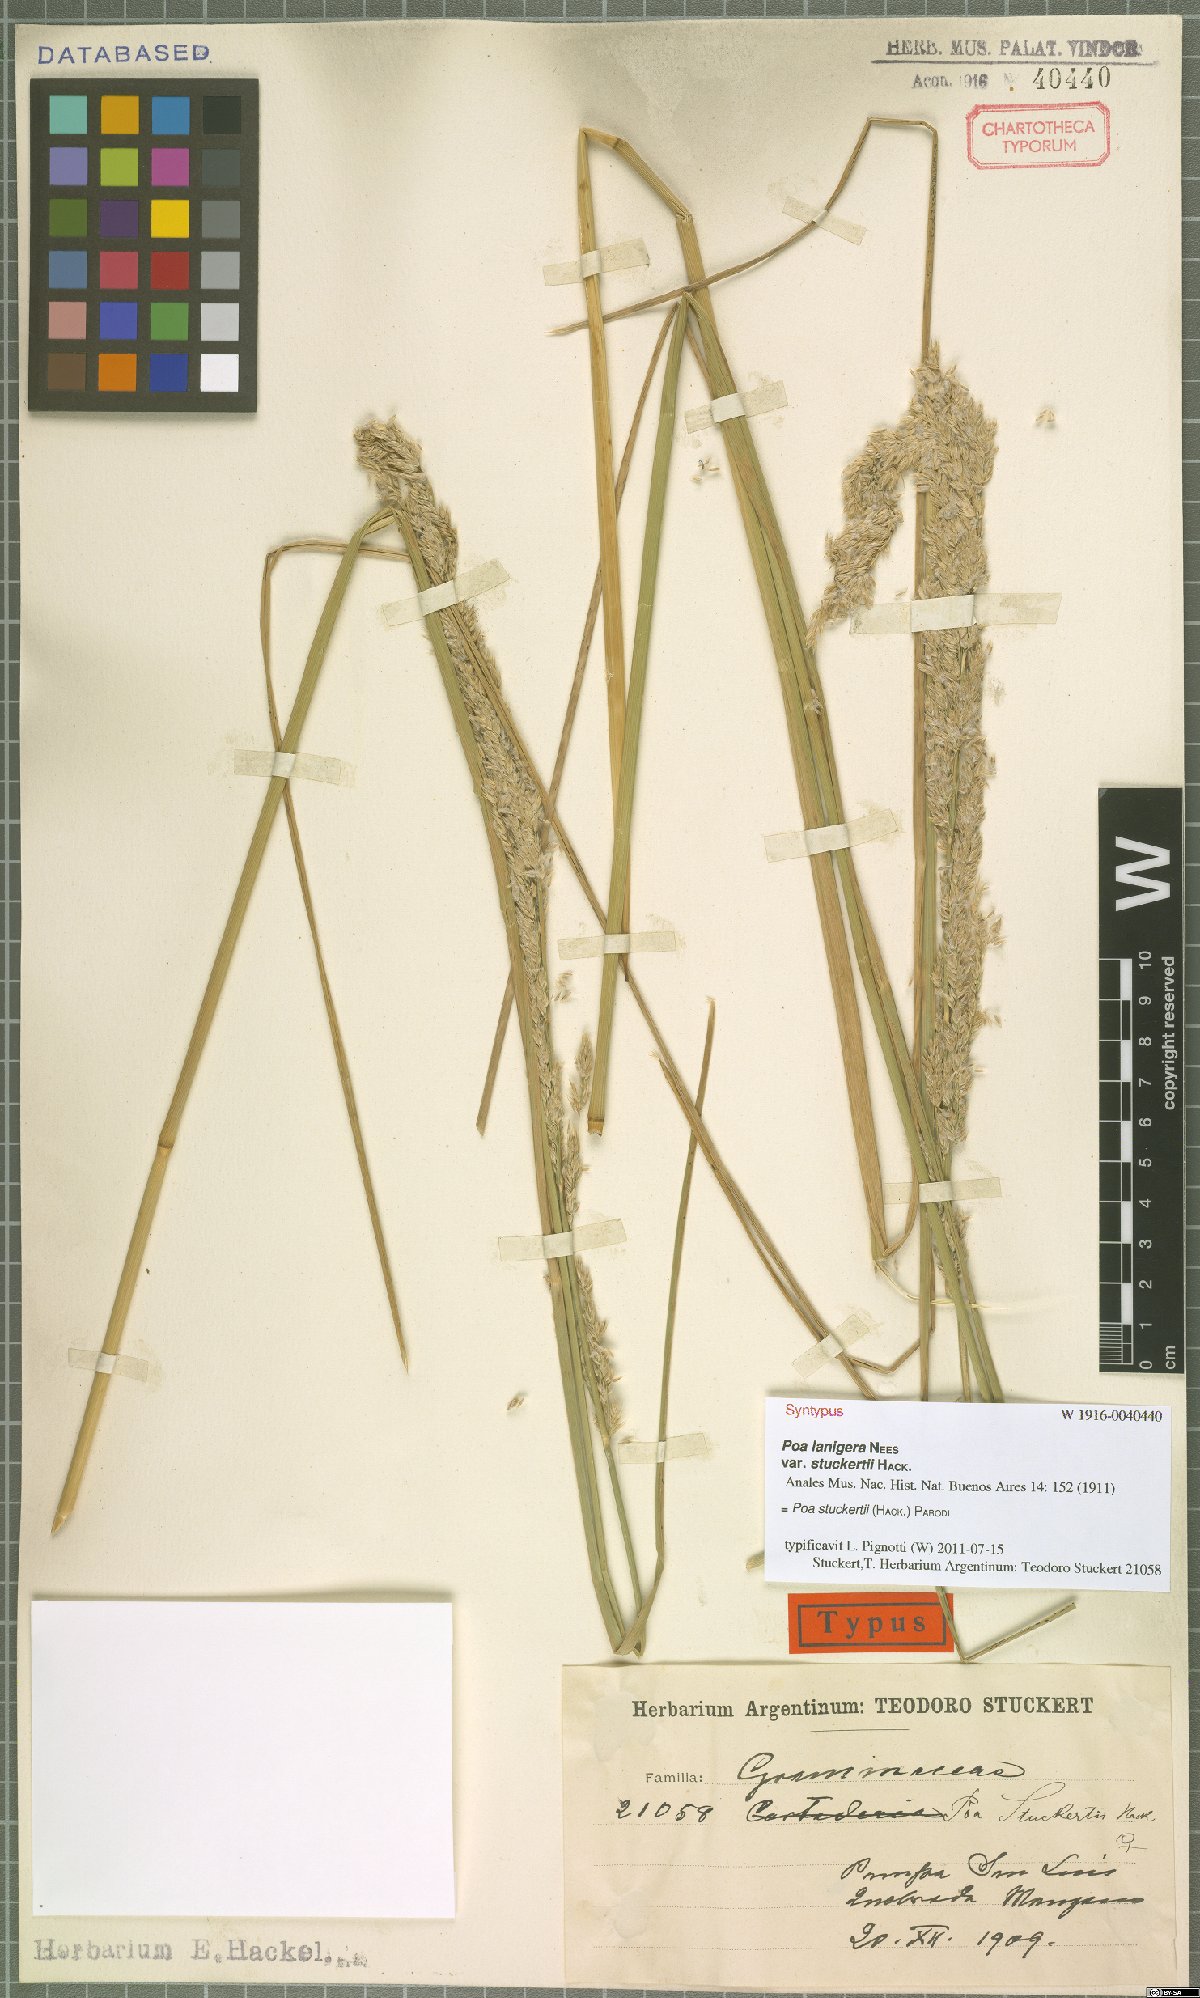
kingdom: Plantae
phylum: Tracheophyta
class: Liliopsida
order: Poales
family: Poaceae
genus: Poa
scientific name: Poa stuckertii
